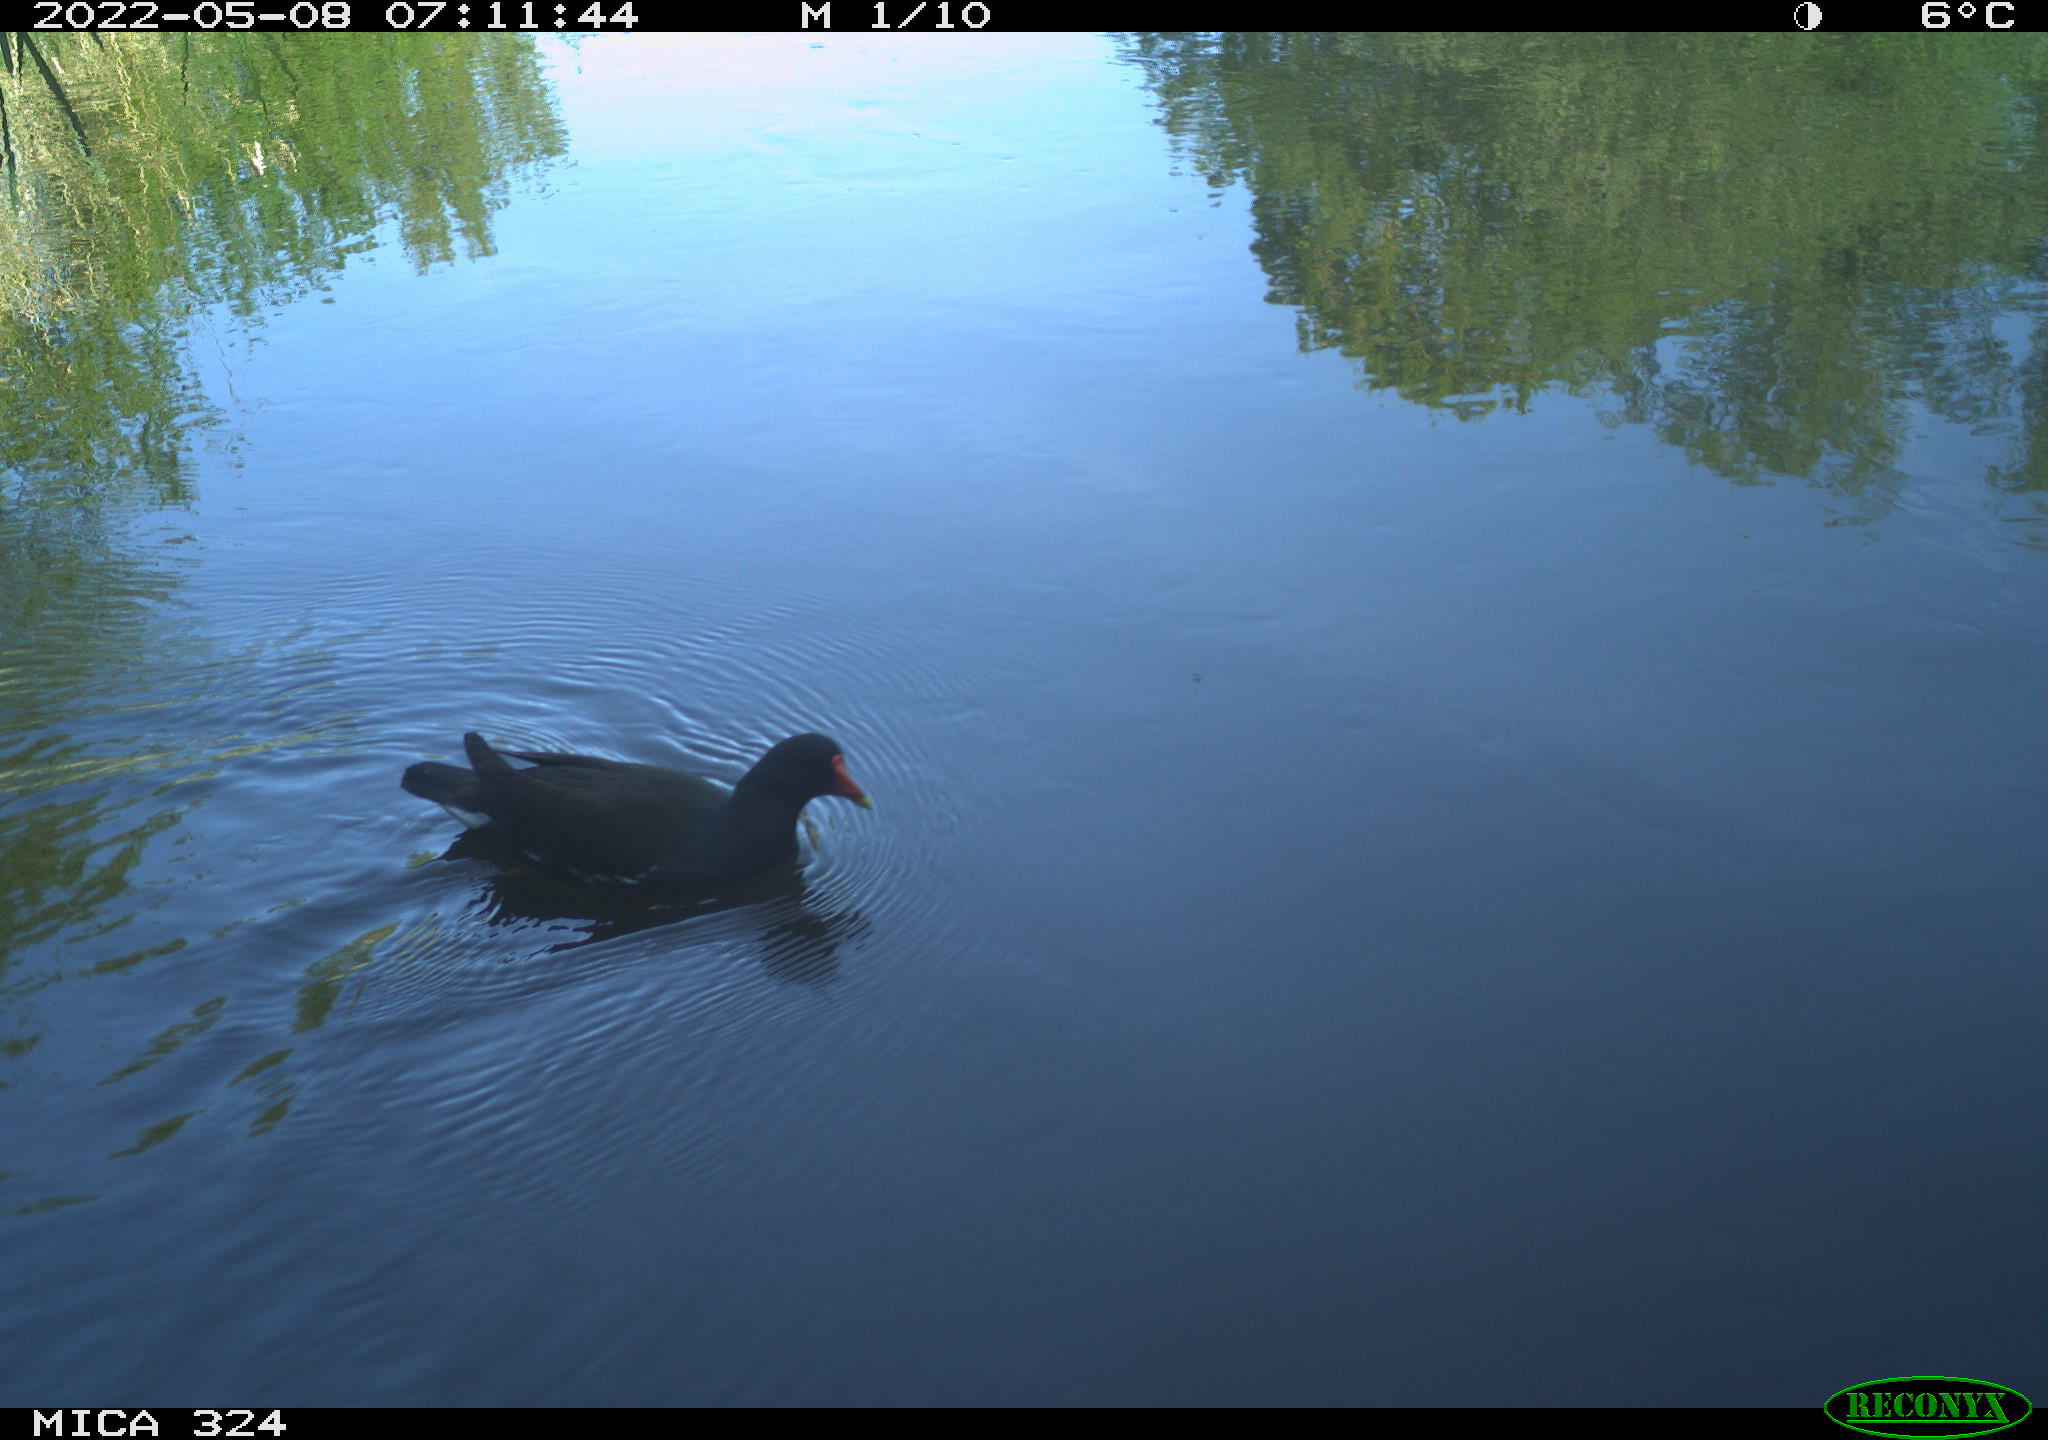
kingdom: Animalia
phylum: Chordata
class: Aves
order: Gruiformes
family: Rallidae
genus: Gallinula
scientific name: Gallinula chloropus
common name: Common moorhen
